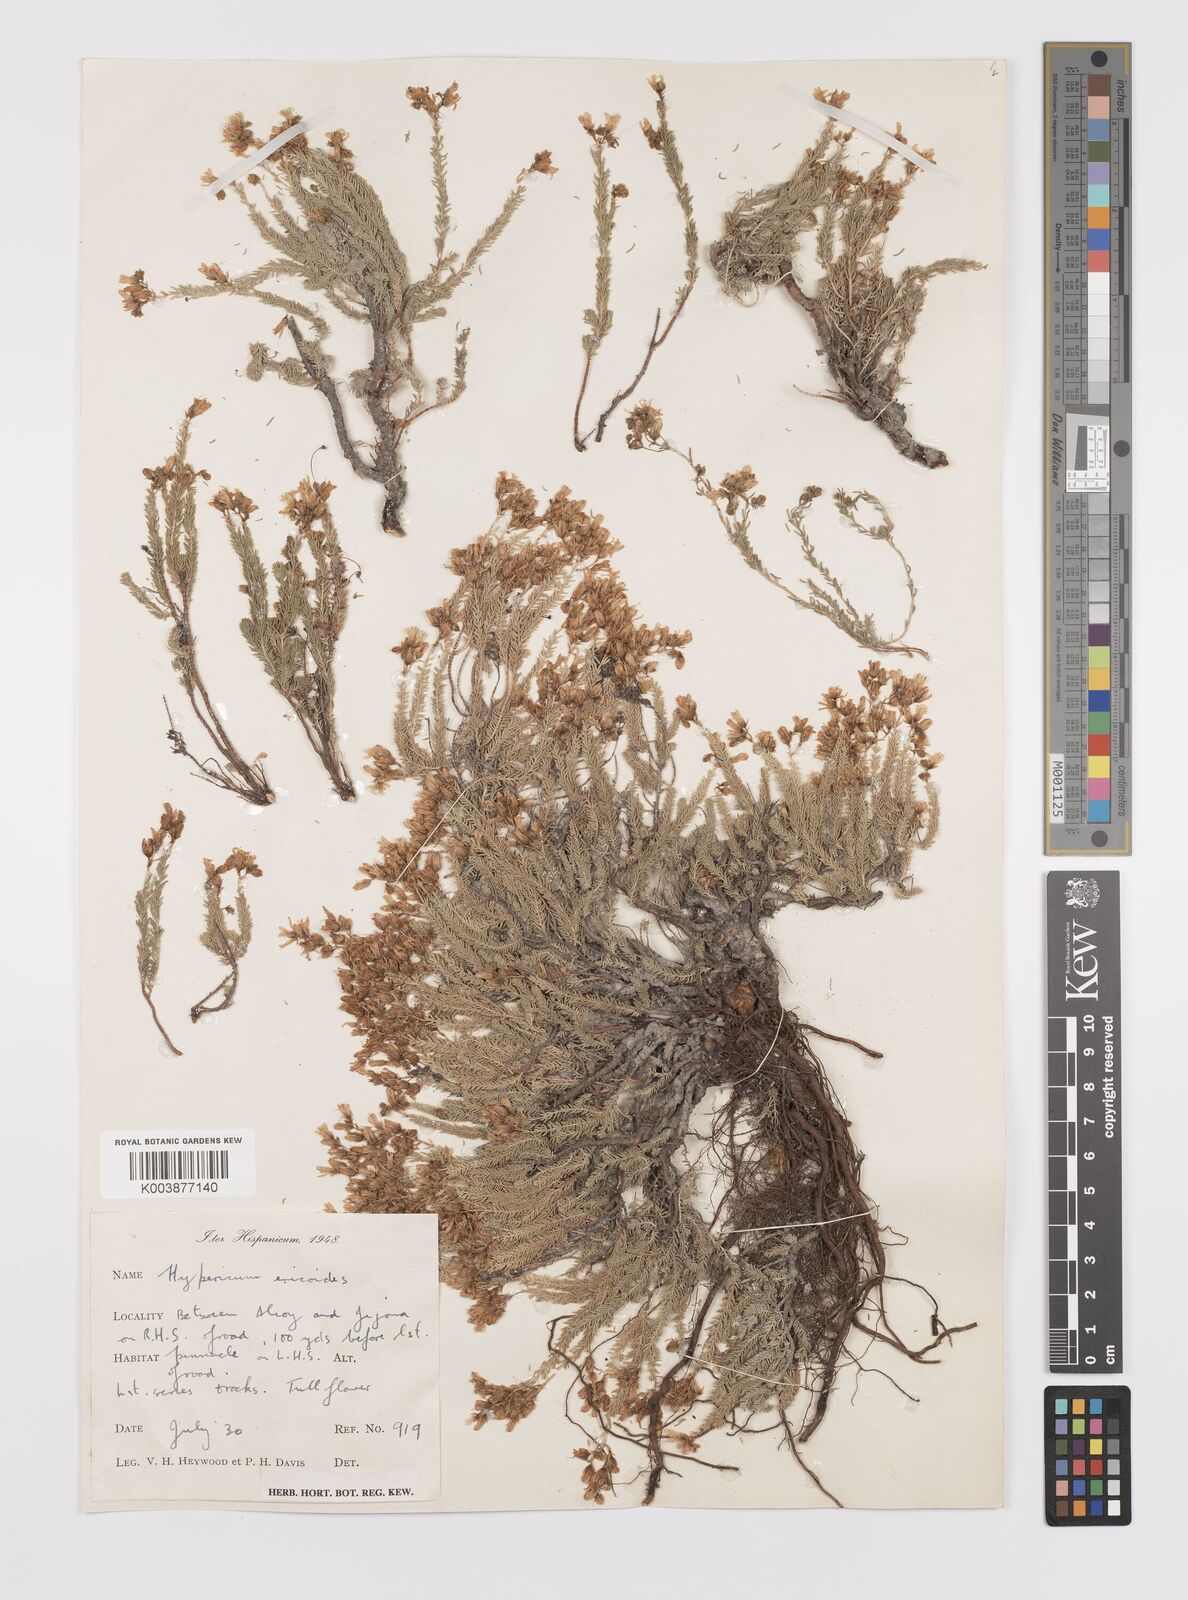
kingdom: Plantae
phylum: Tracheophyta
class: Magnoliopsida
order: Malpighiales
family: Hypericaceae
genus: Hypericum
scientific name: Hypericum ericoides
